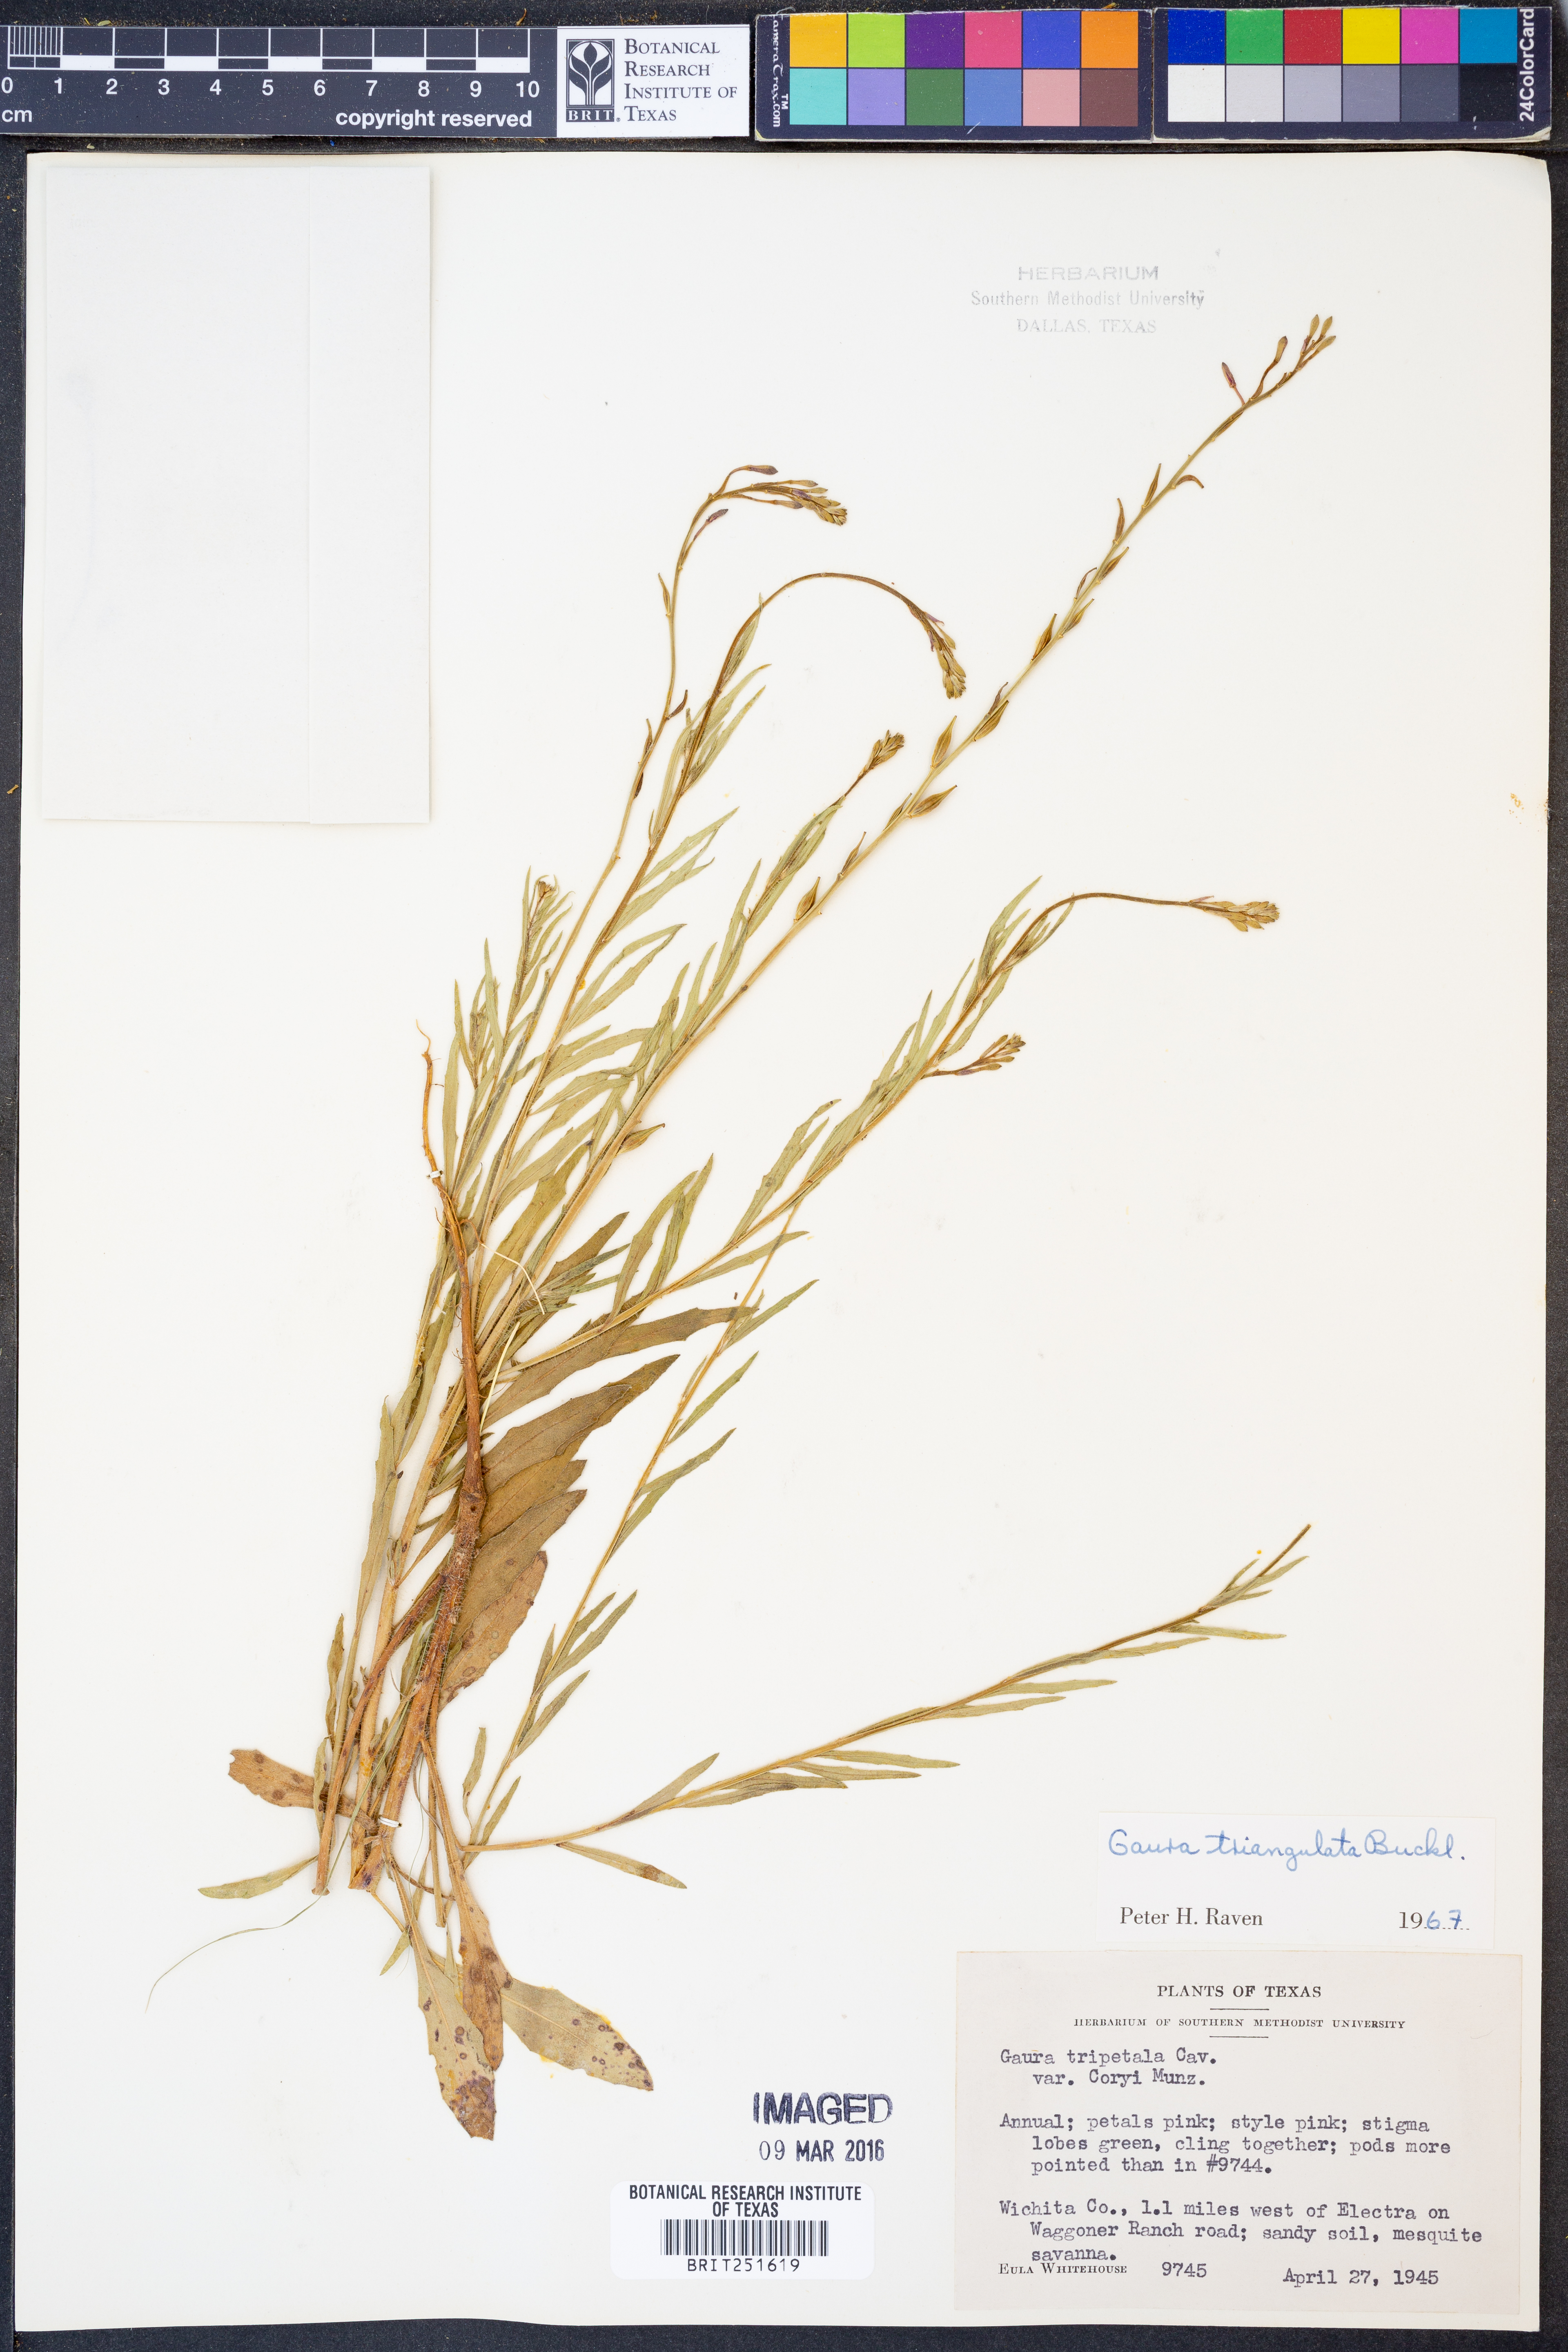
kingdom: Plantae
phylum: Tracheophyta
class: Magnoliopsida
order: Myrtales
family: Onagraceae
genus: Oenothera
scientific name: Oenothera triangulata
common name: Prairie beeblossom
